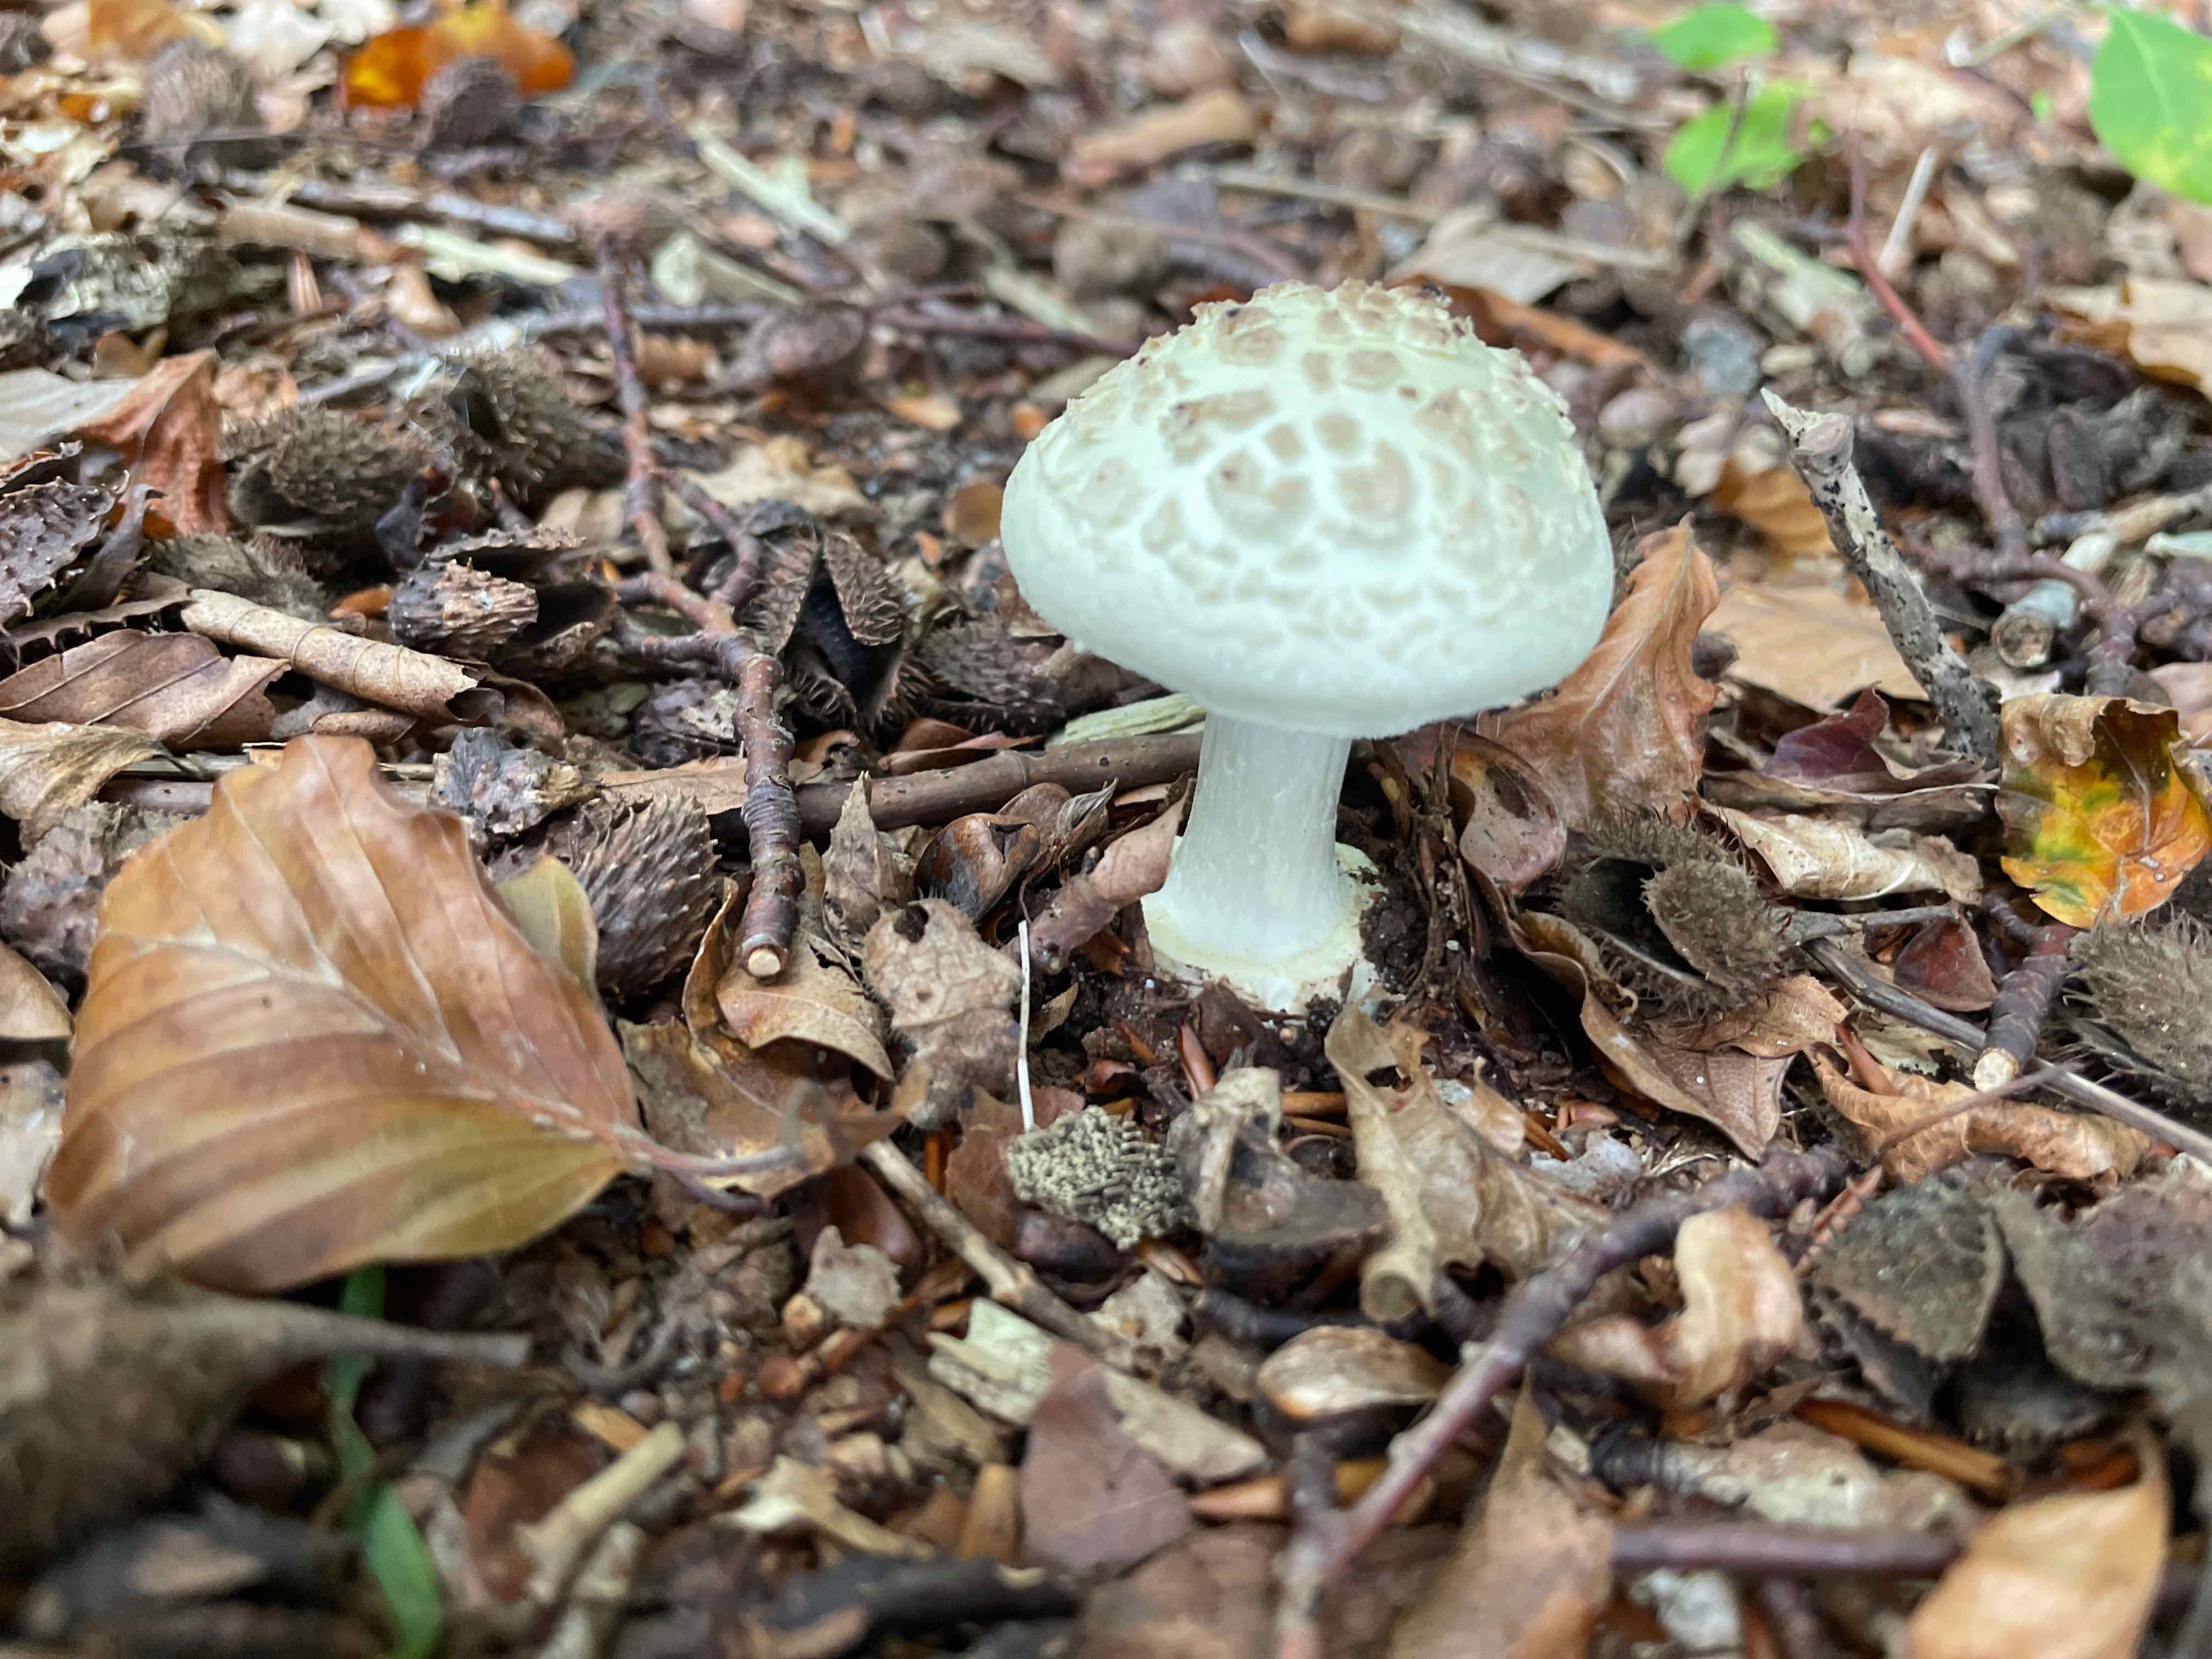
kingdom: Fungi
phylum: Basidiomycota
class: Agaricomycetes
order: Agaricales
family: Amanitaceae
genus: Amanita
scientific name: Amanita citrina
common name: kugleknoldet fluesvamp
